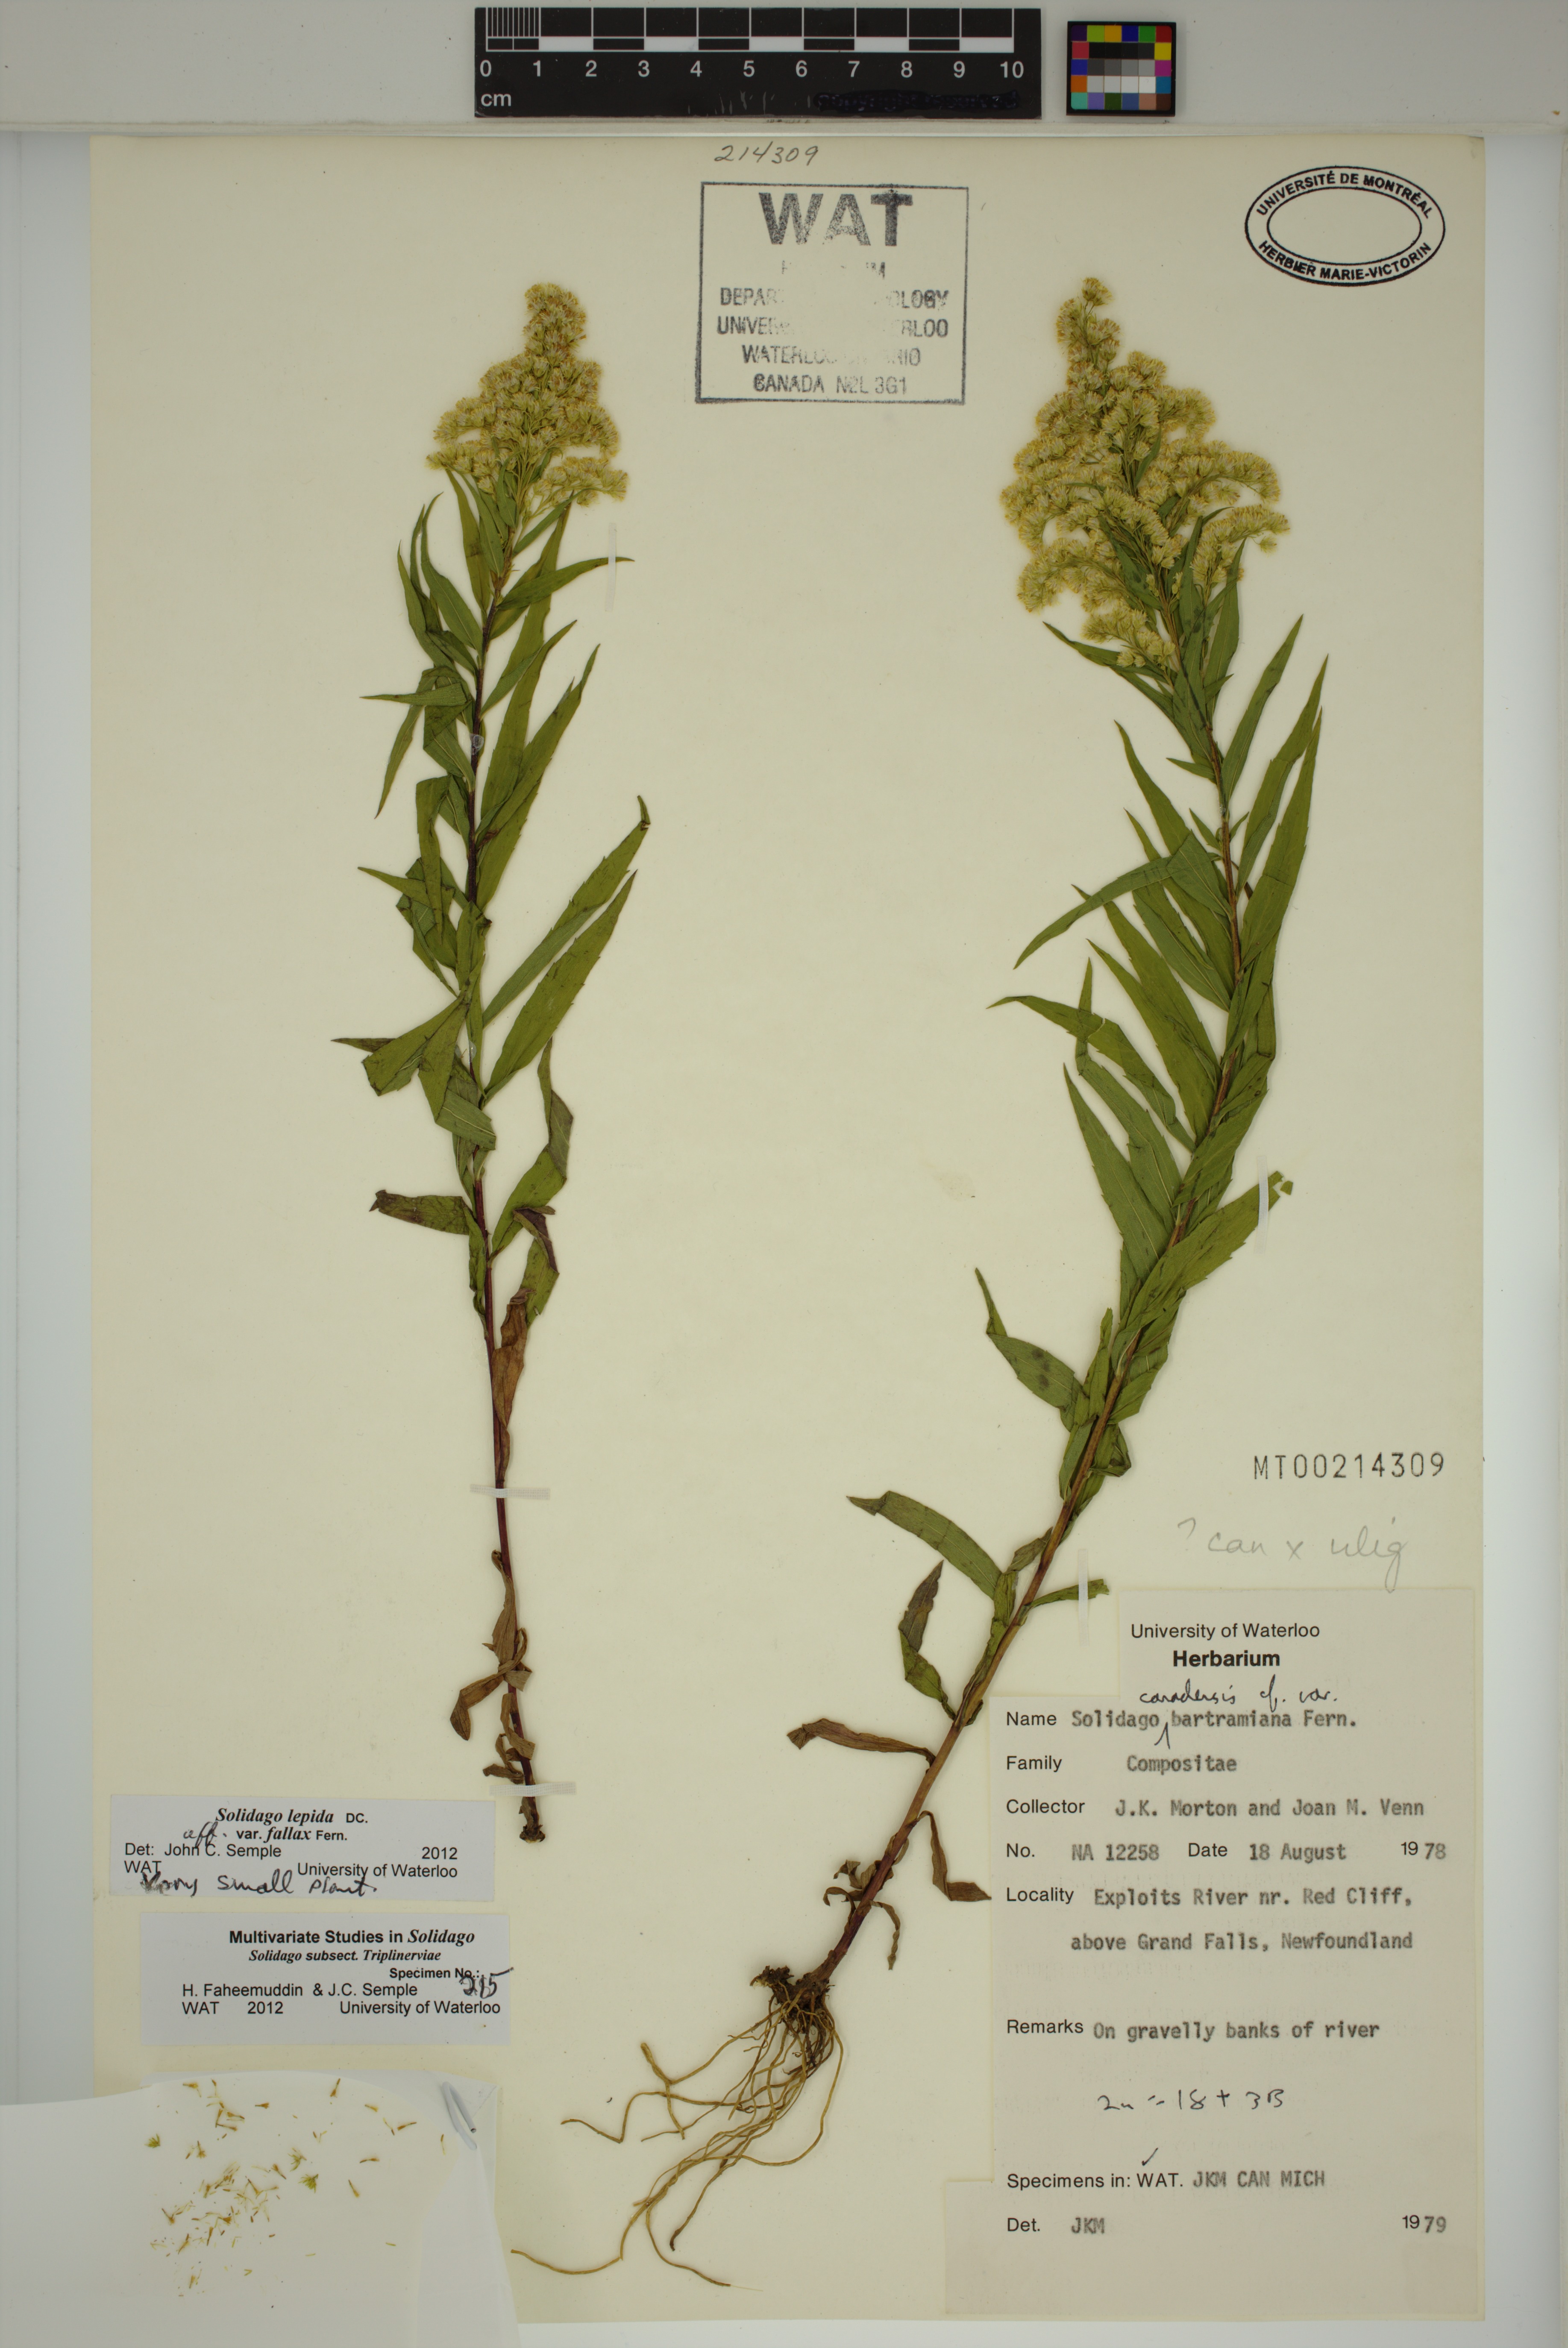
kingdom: Plantae
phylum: Tracheophyta
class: Magnoliopsida
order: Asterales
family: Asteraceae
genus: Solidago
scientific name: Solidago fallax
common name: Big-toothed canada goldenrod
